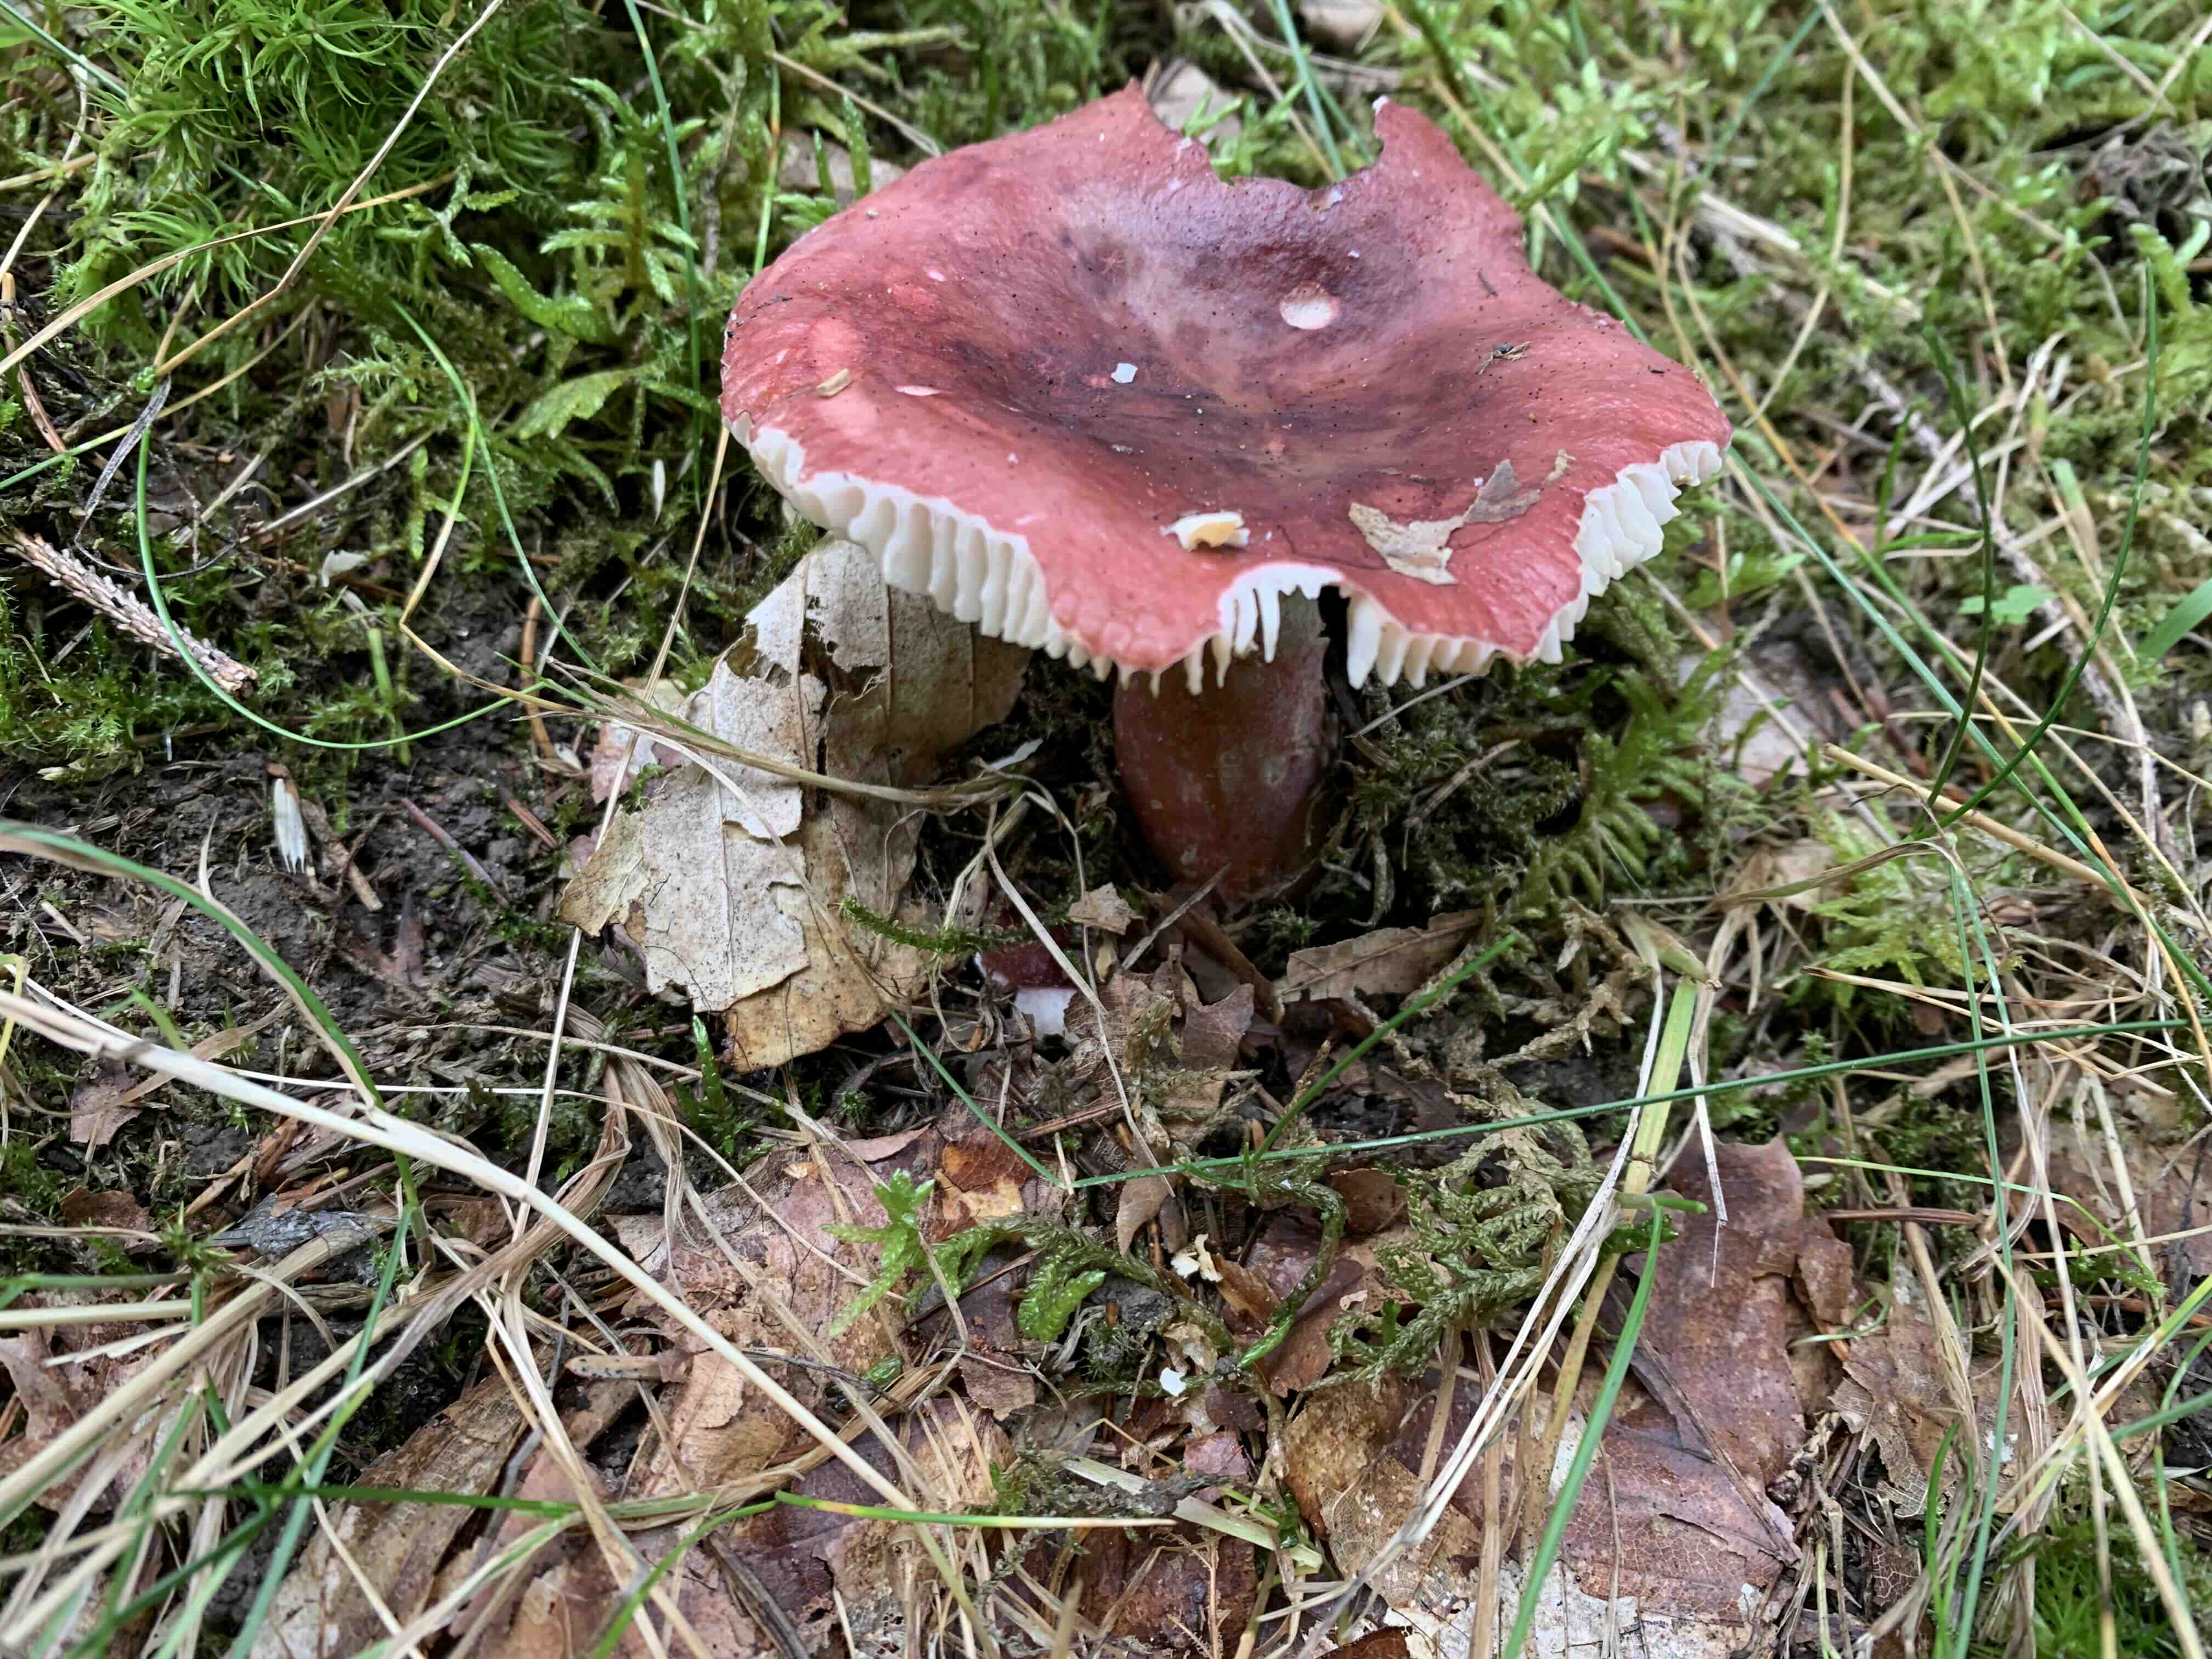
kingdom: Fungi
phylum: Basidiomycota
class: Agaricomycetes
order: Russulales
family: Russulaceae
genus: Russula
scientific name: Russula queletii
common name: Quélets skørhat
